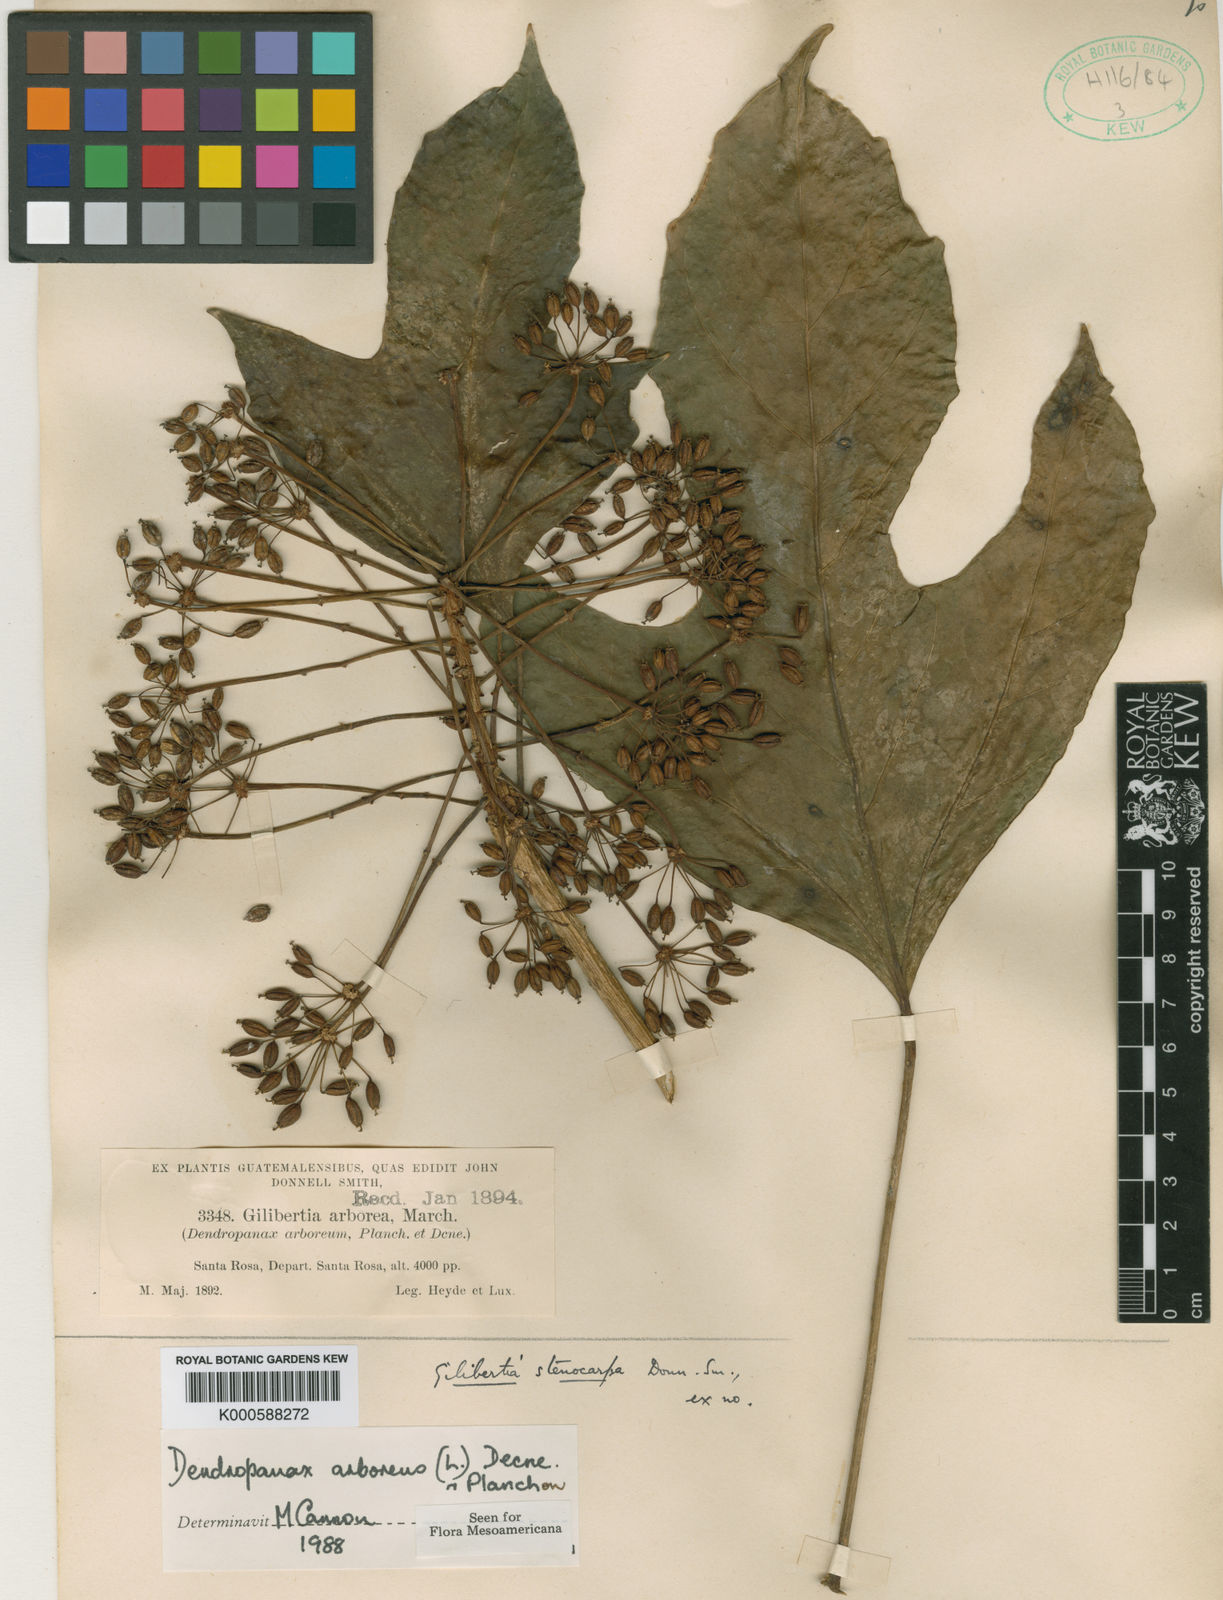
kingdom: Plantae
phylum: Tracheophyta
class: Magnoliopsida
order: Apiales
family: Araliaceae
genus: Dendropanax
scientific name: Dendropanax arboreus
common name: Potato-wood
